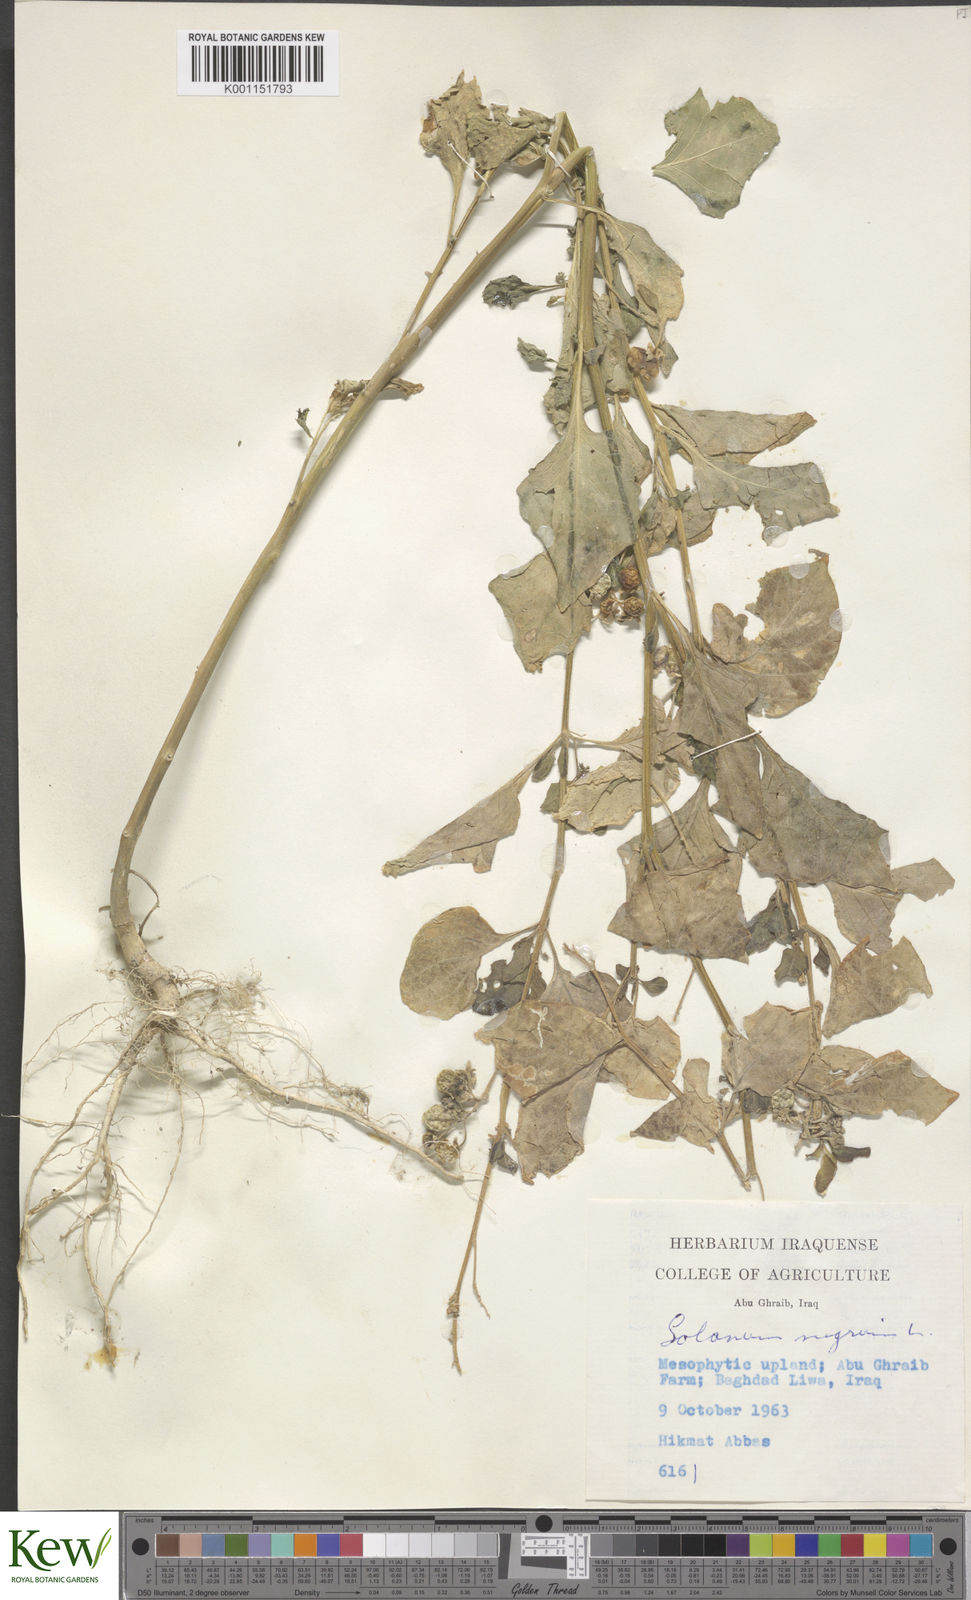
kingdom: Plantae
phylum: Tracheophyta
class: Magnoliopsida
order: Solanales
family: Solanaceae
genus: Solanum
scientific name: Solanum nigrum
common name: Black nightshade
